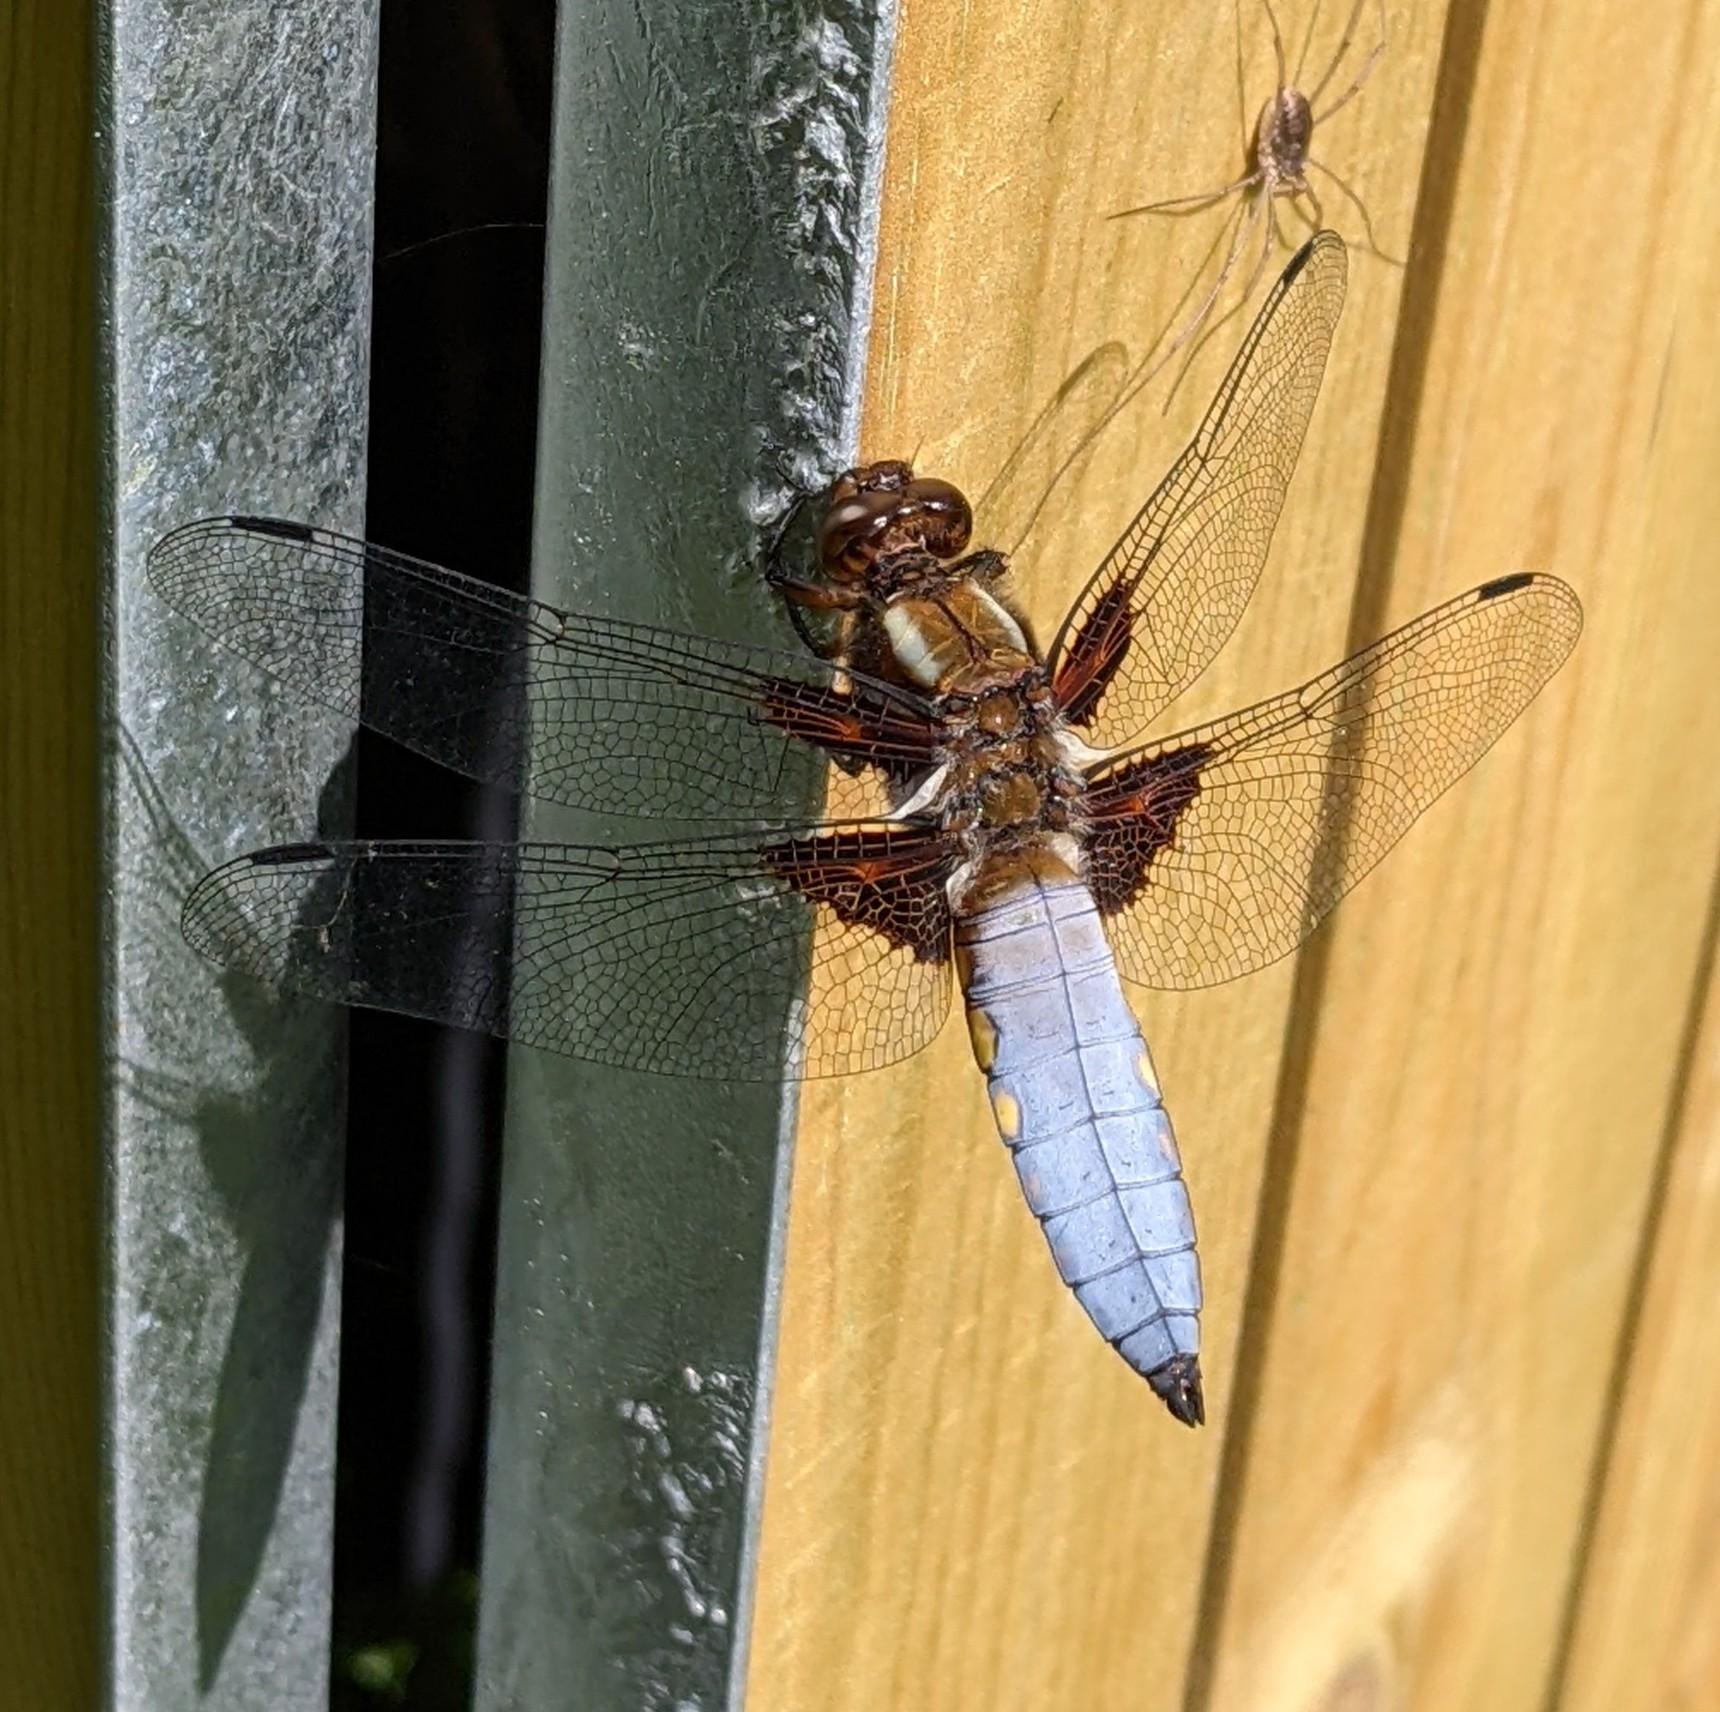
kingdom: Animalia
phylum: Arthropoda
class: Insecta
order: Odonata
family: Libellulidae
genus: Libellula
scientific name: Libellula depressa
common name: Blå libel
